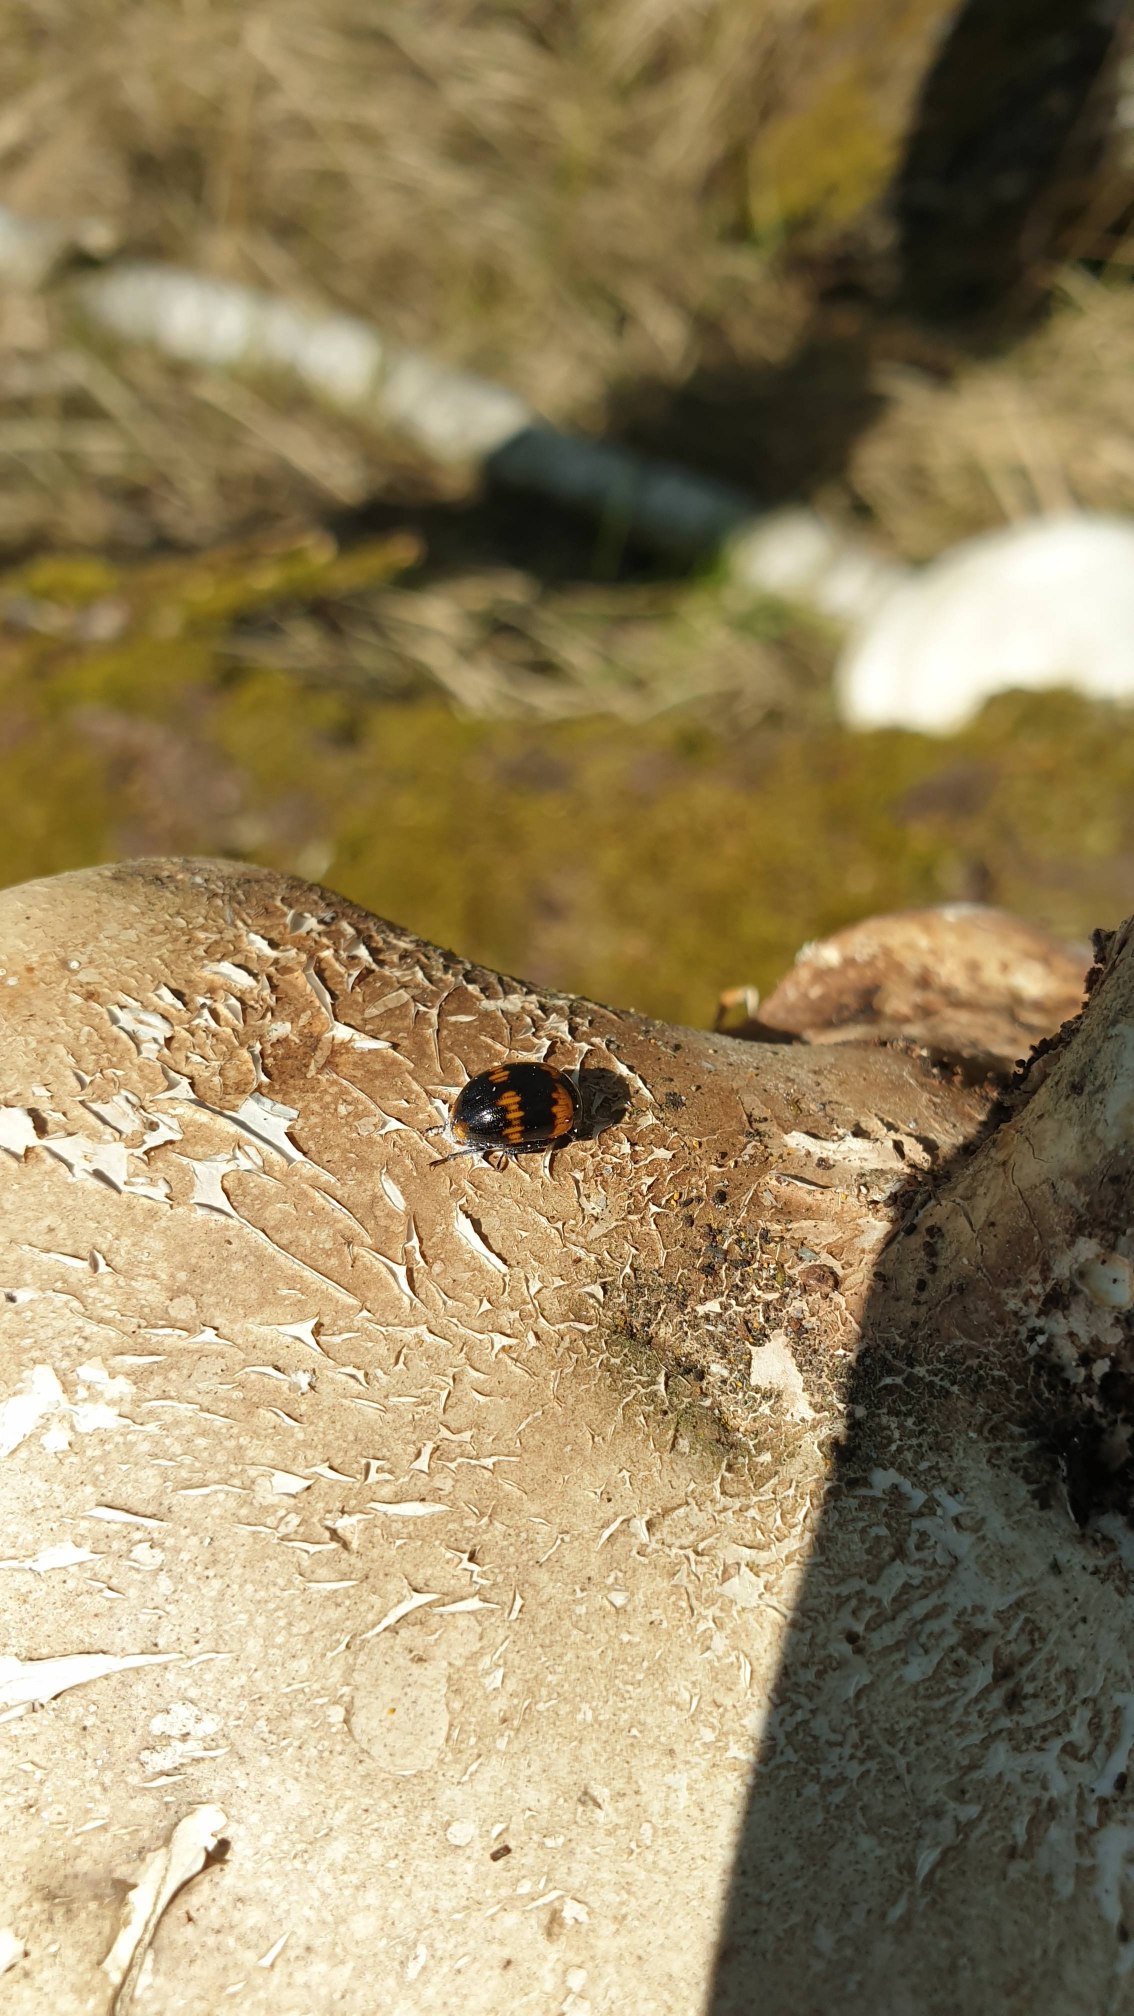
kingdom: Animalia
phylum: Arthropoda
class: Insecta
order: Coleoptera
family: Tenebrionidae
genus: Diaperis
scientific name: Diaperis boleti
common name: Tigerskyggebille
